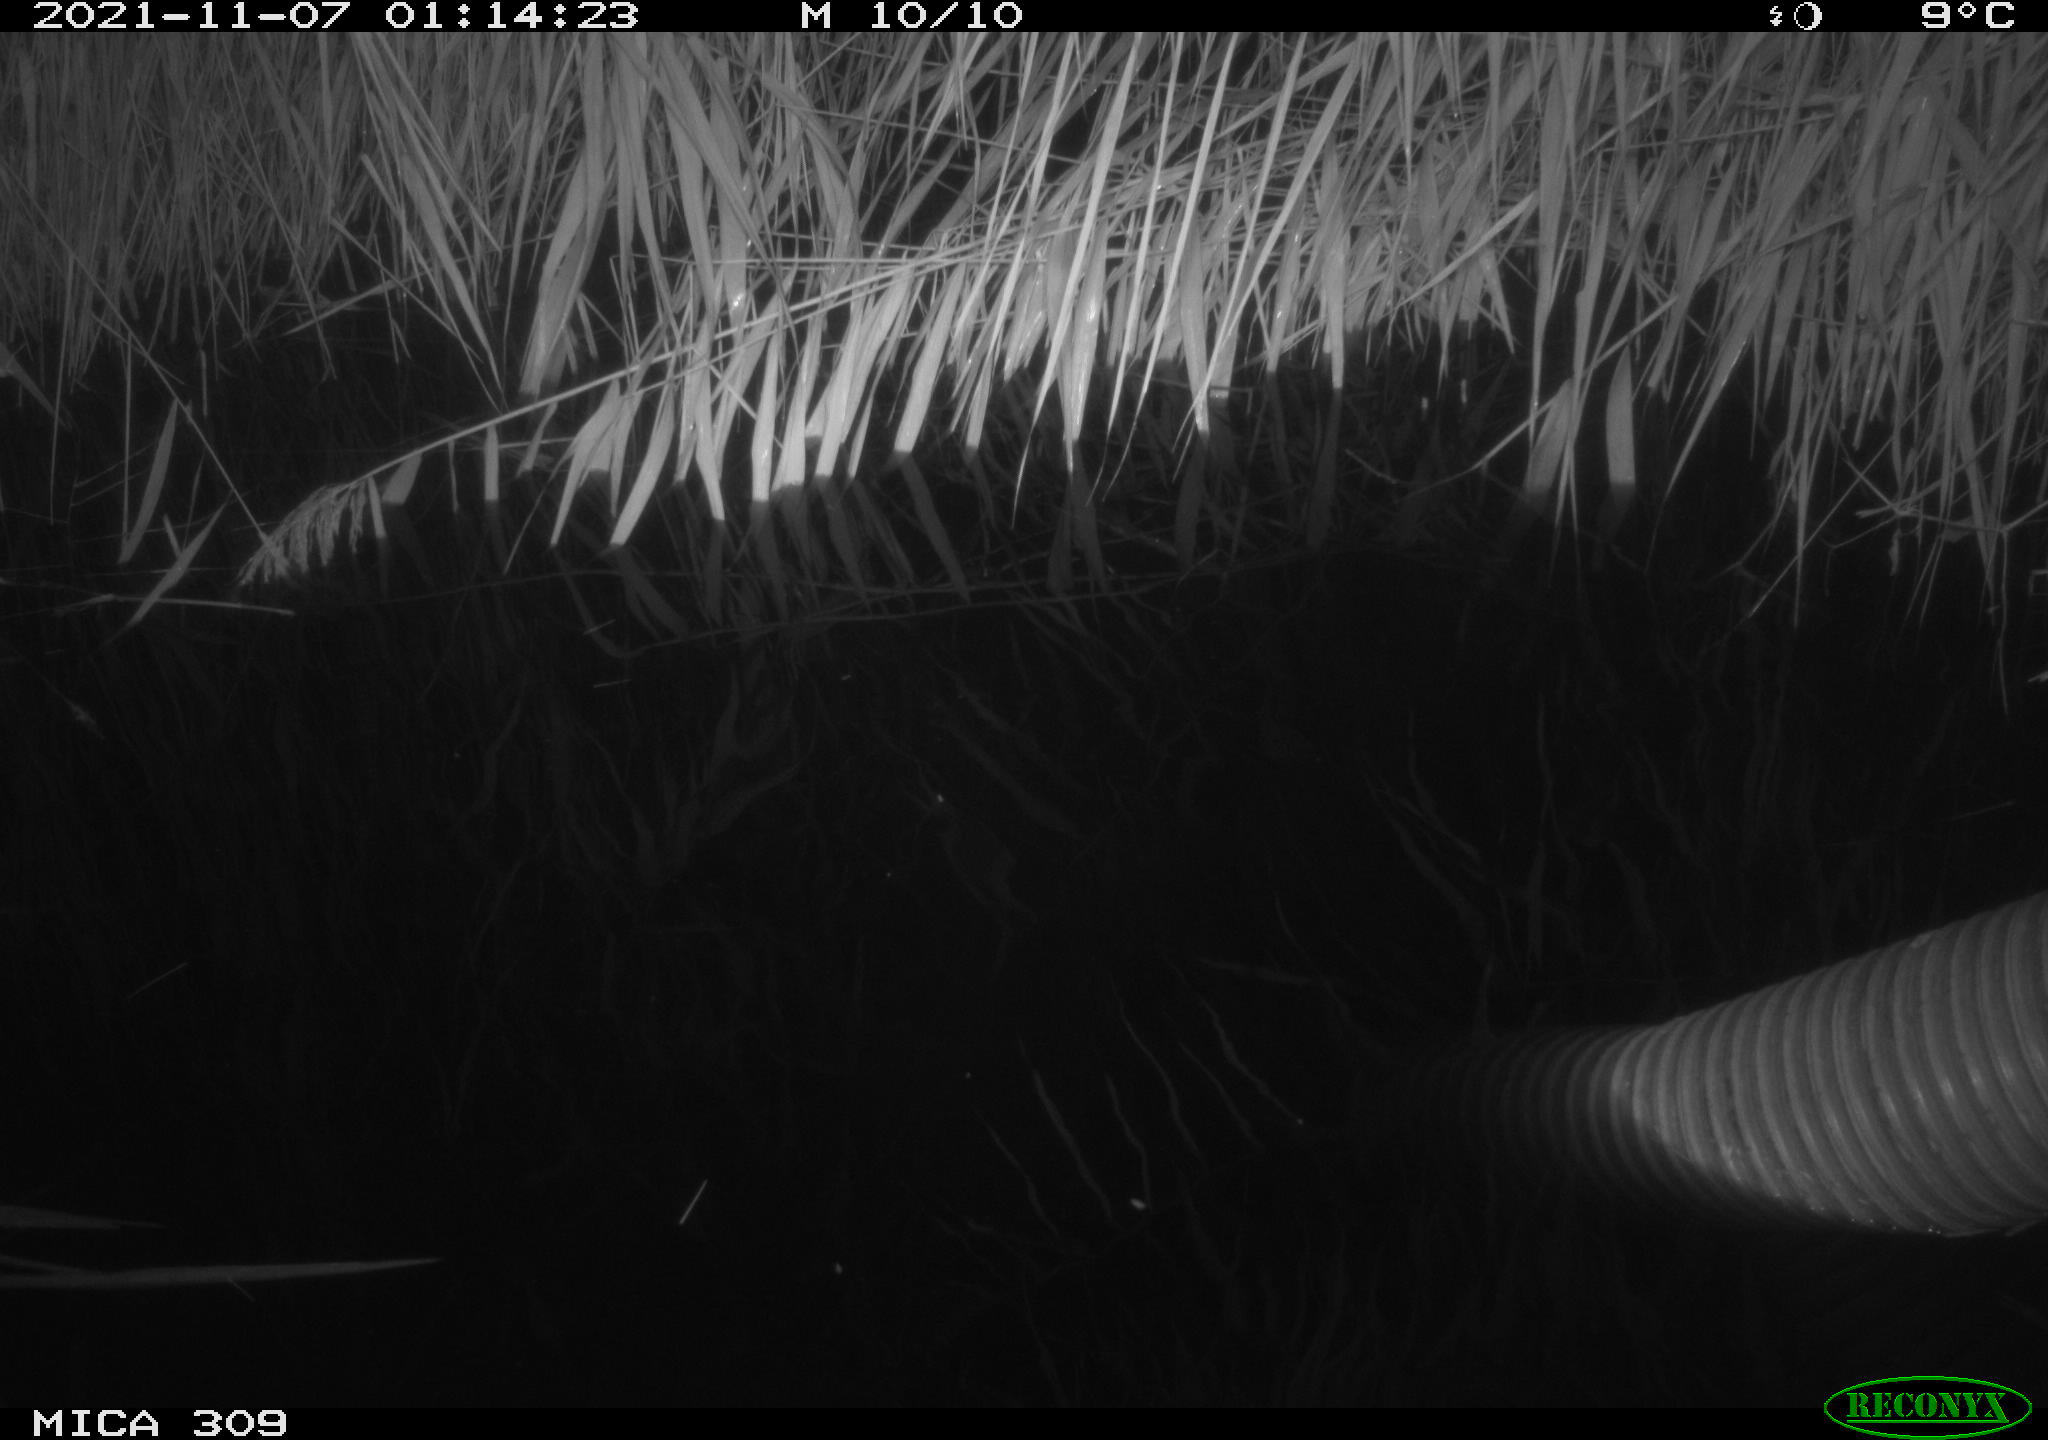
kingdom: Animalia
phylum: Chordata
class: Mammalia
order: Rodentia
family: Muridae
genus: Rattus
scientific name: Rattus norvegicus
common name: Brown rat
